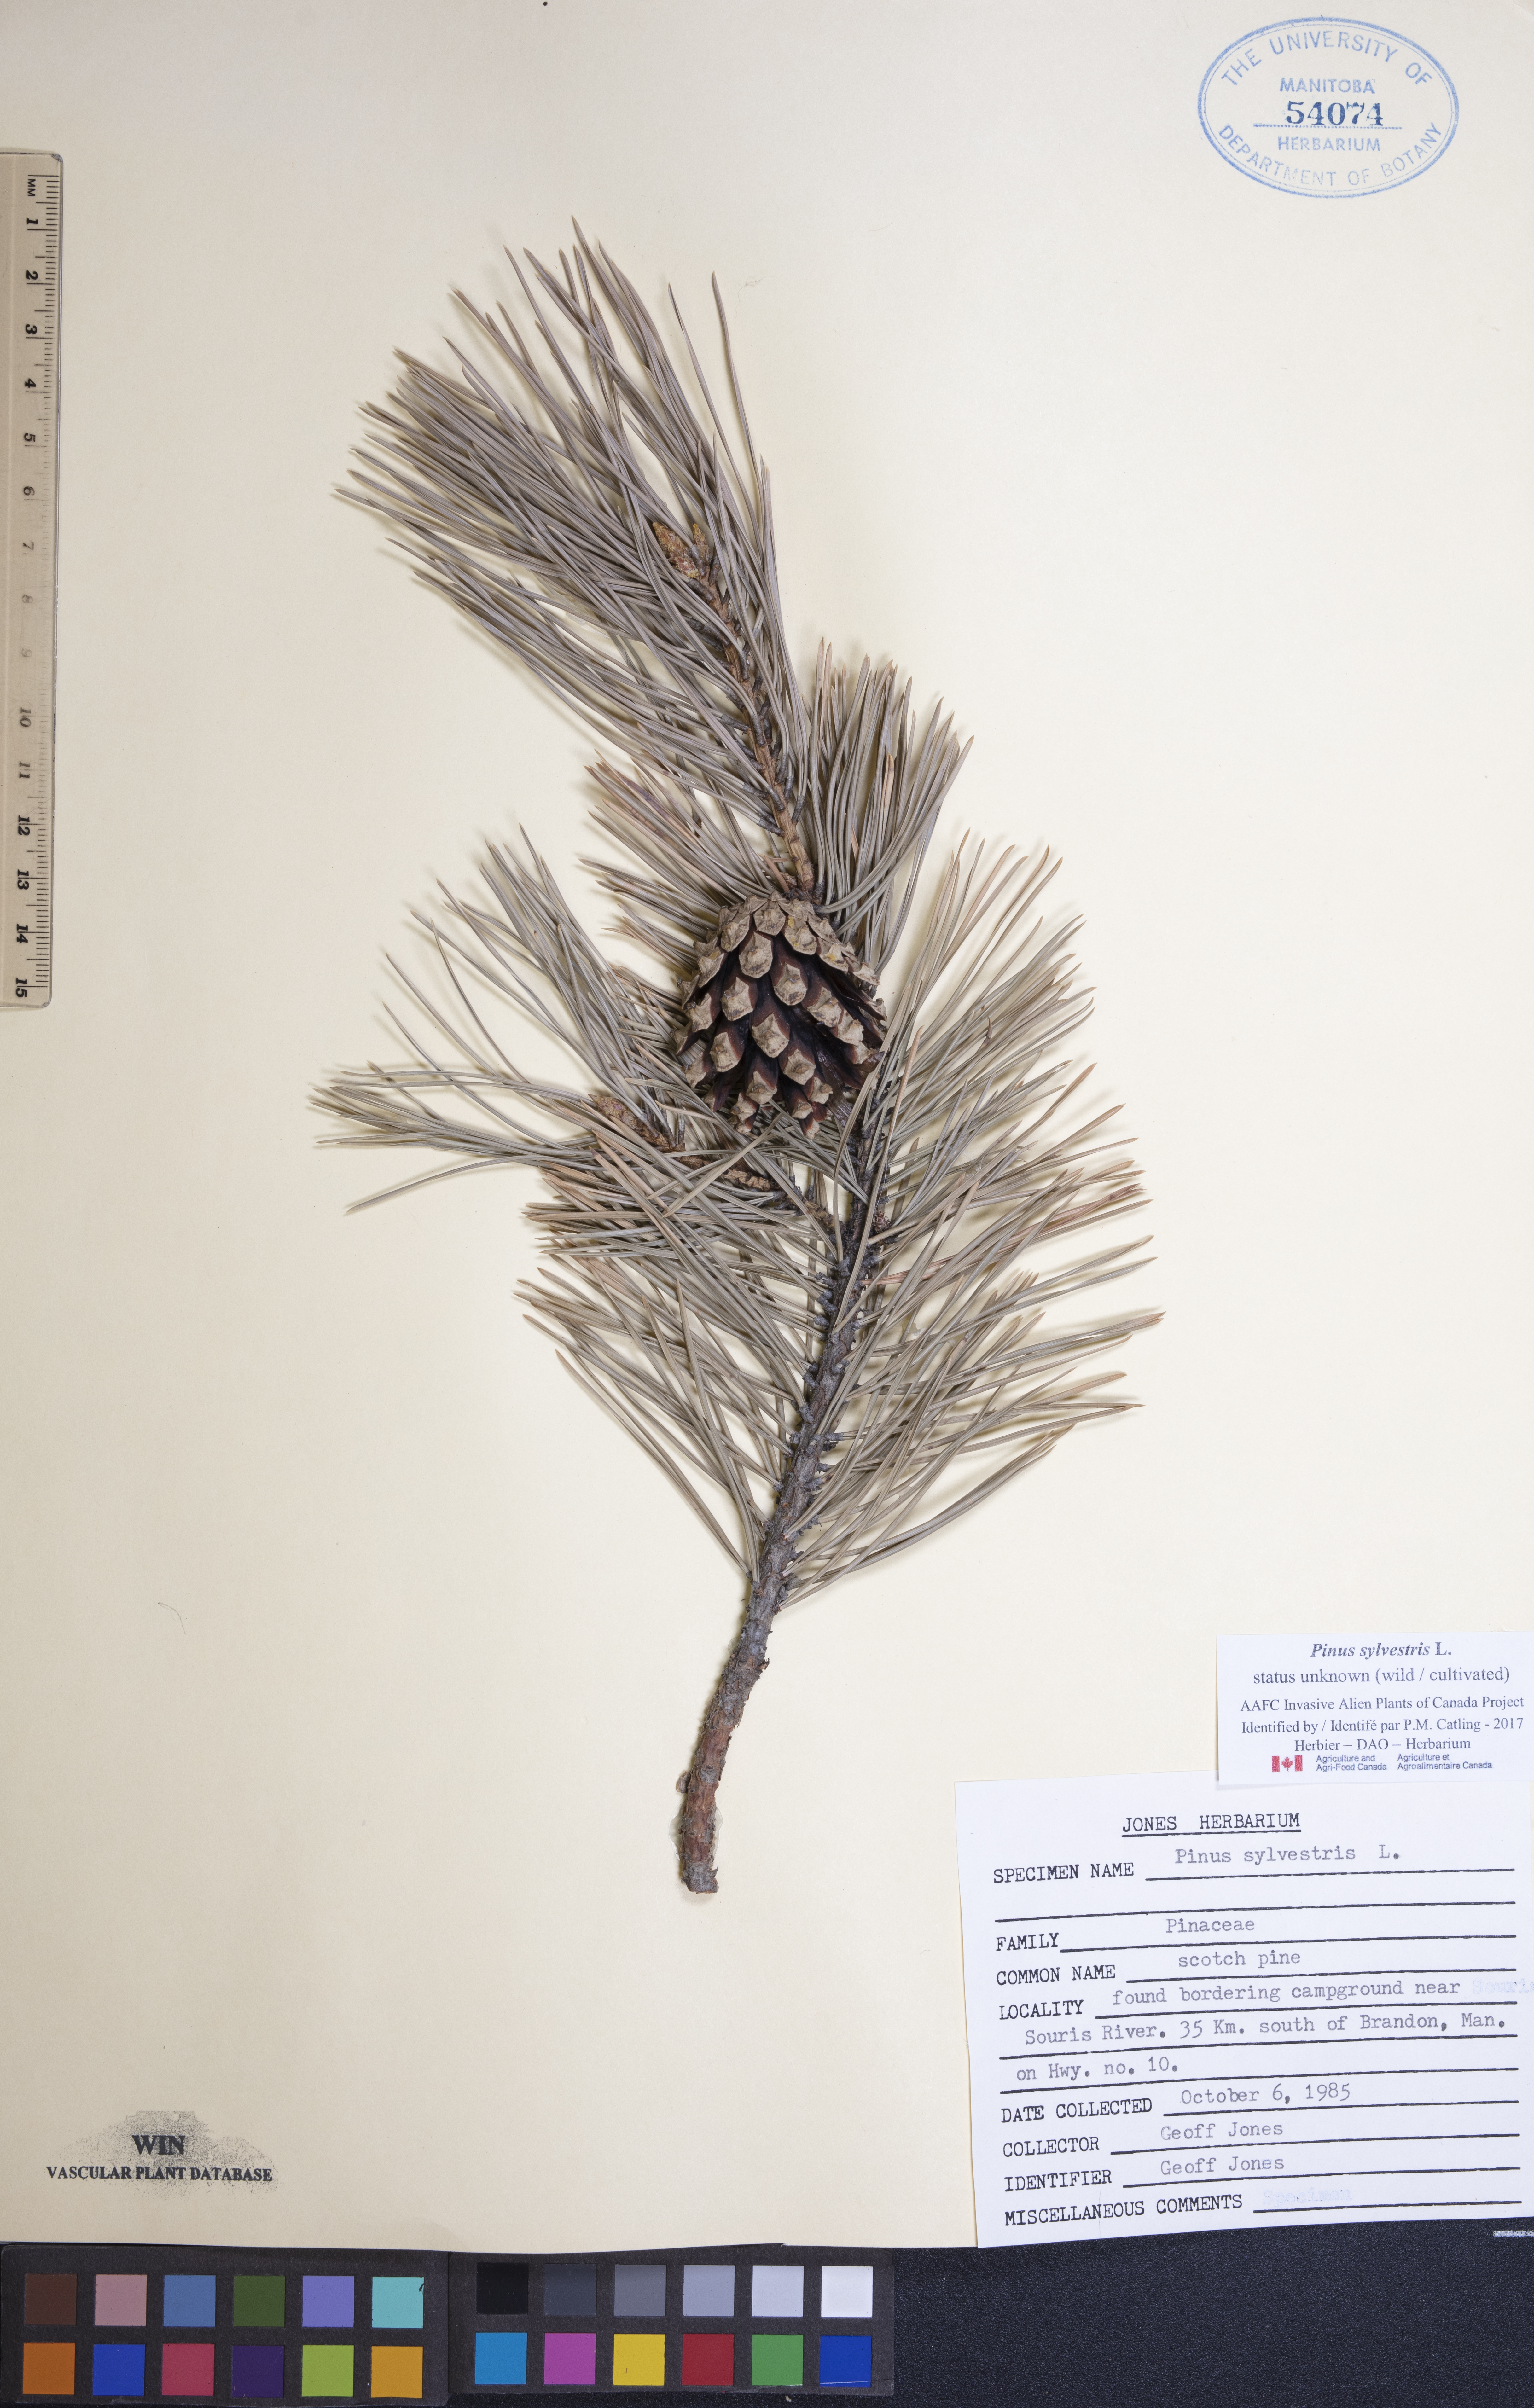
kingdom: Plantae
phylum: Tracheophyta
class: Pinopsida
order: Pinales
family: Pinaceae
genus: Pinus
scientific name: Pinus sylvestris
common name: Scots pine
